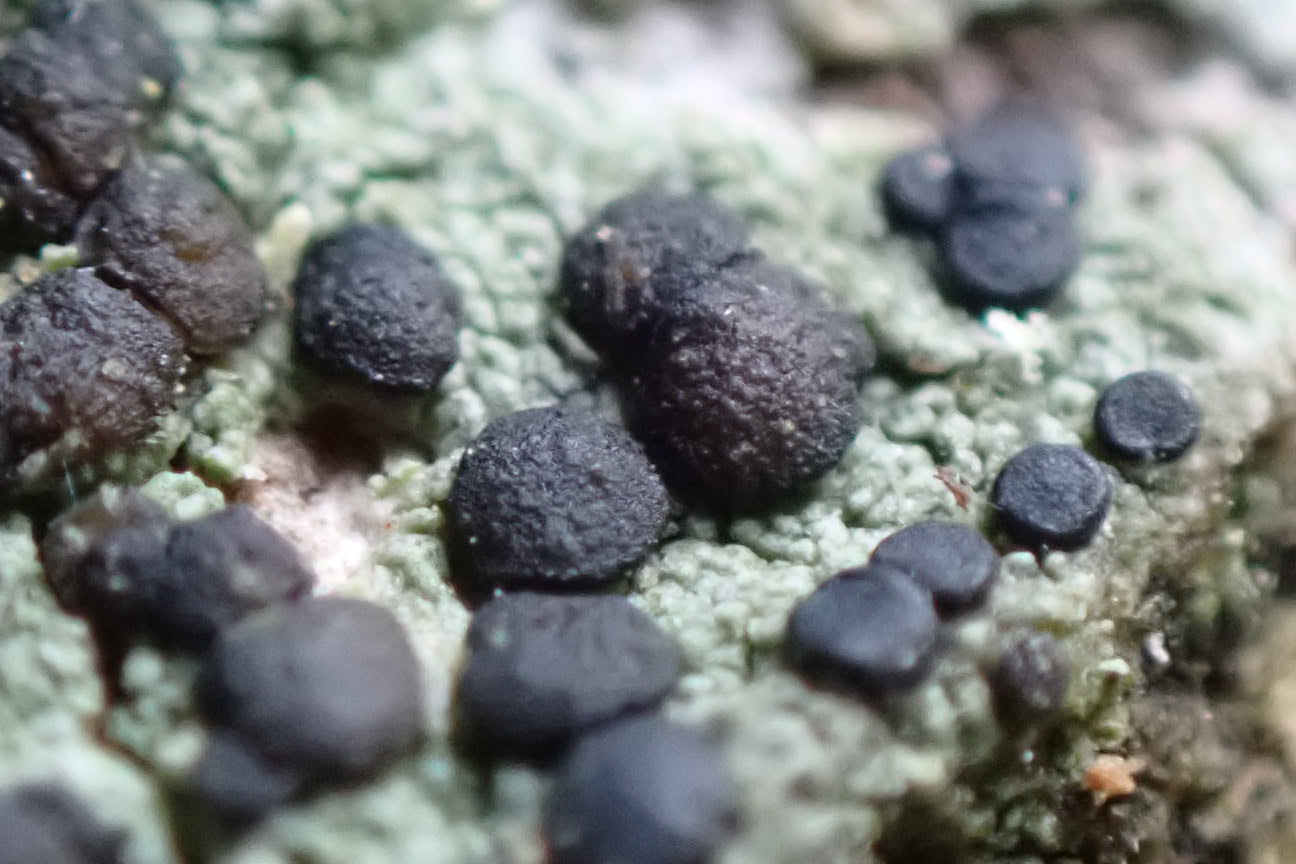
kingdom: Fungi
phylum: Ascomycota
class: Lecanoromycetes
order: Lecanorales
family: Lecanoraceae
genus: Lecidella
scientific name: Lecidella elaeochroma
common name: grågrøn skivelav
